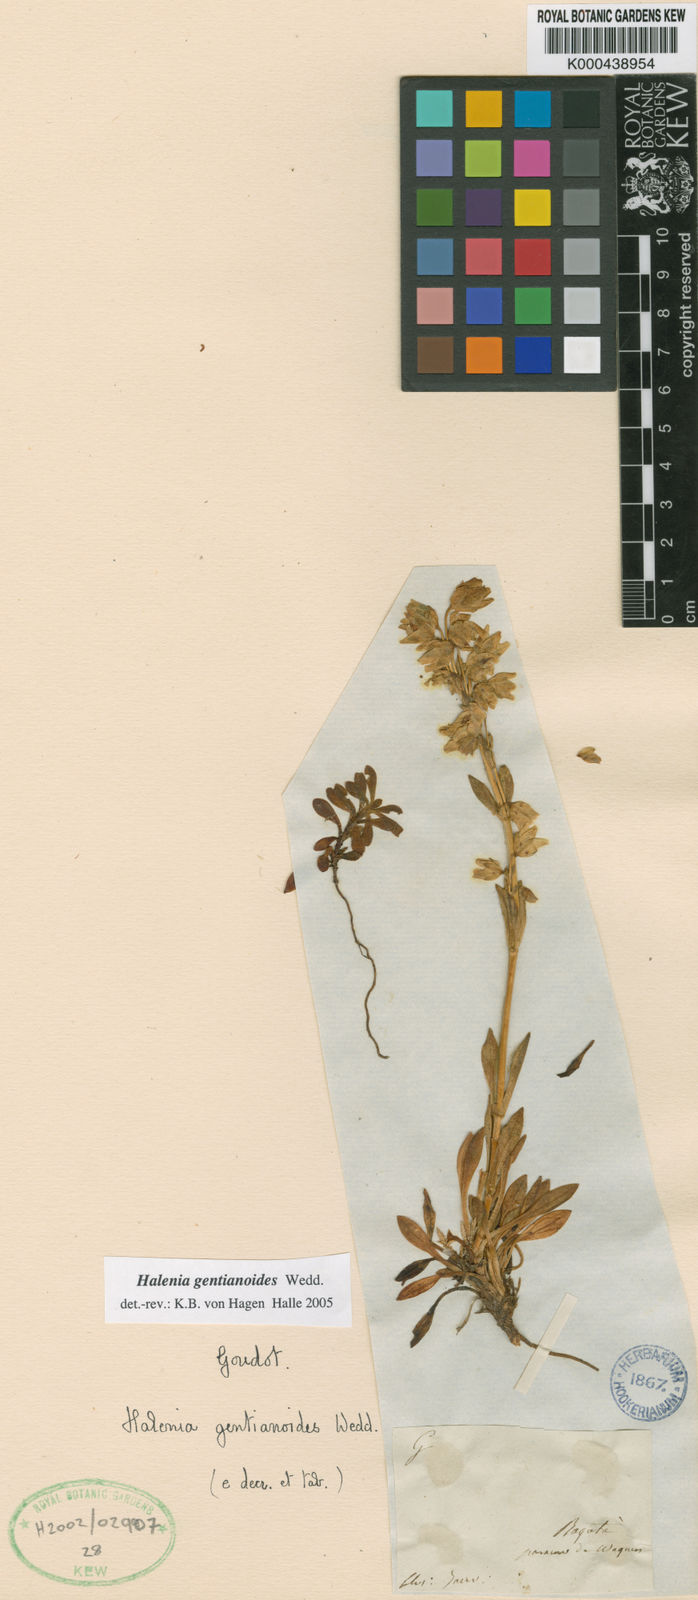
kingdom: Plantae
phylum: Tracheophyta
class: Magnoliopsida
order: Gentianales
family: Gentianaceae
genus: Halenia
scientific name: Halenia gentianoides
